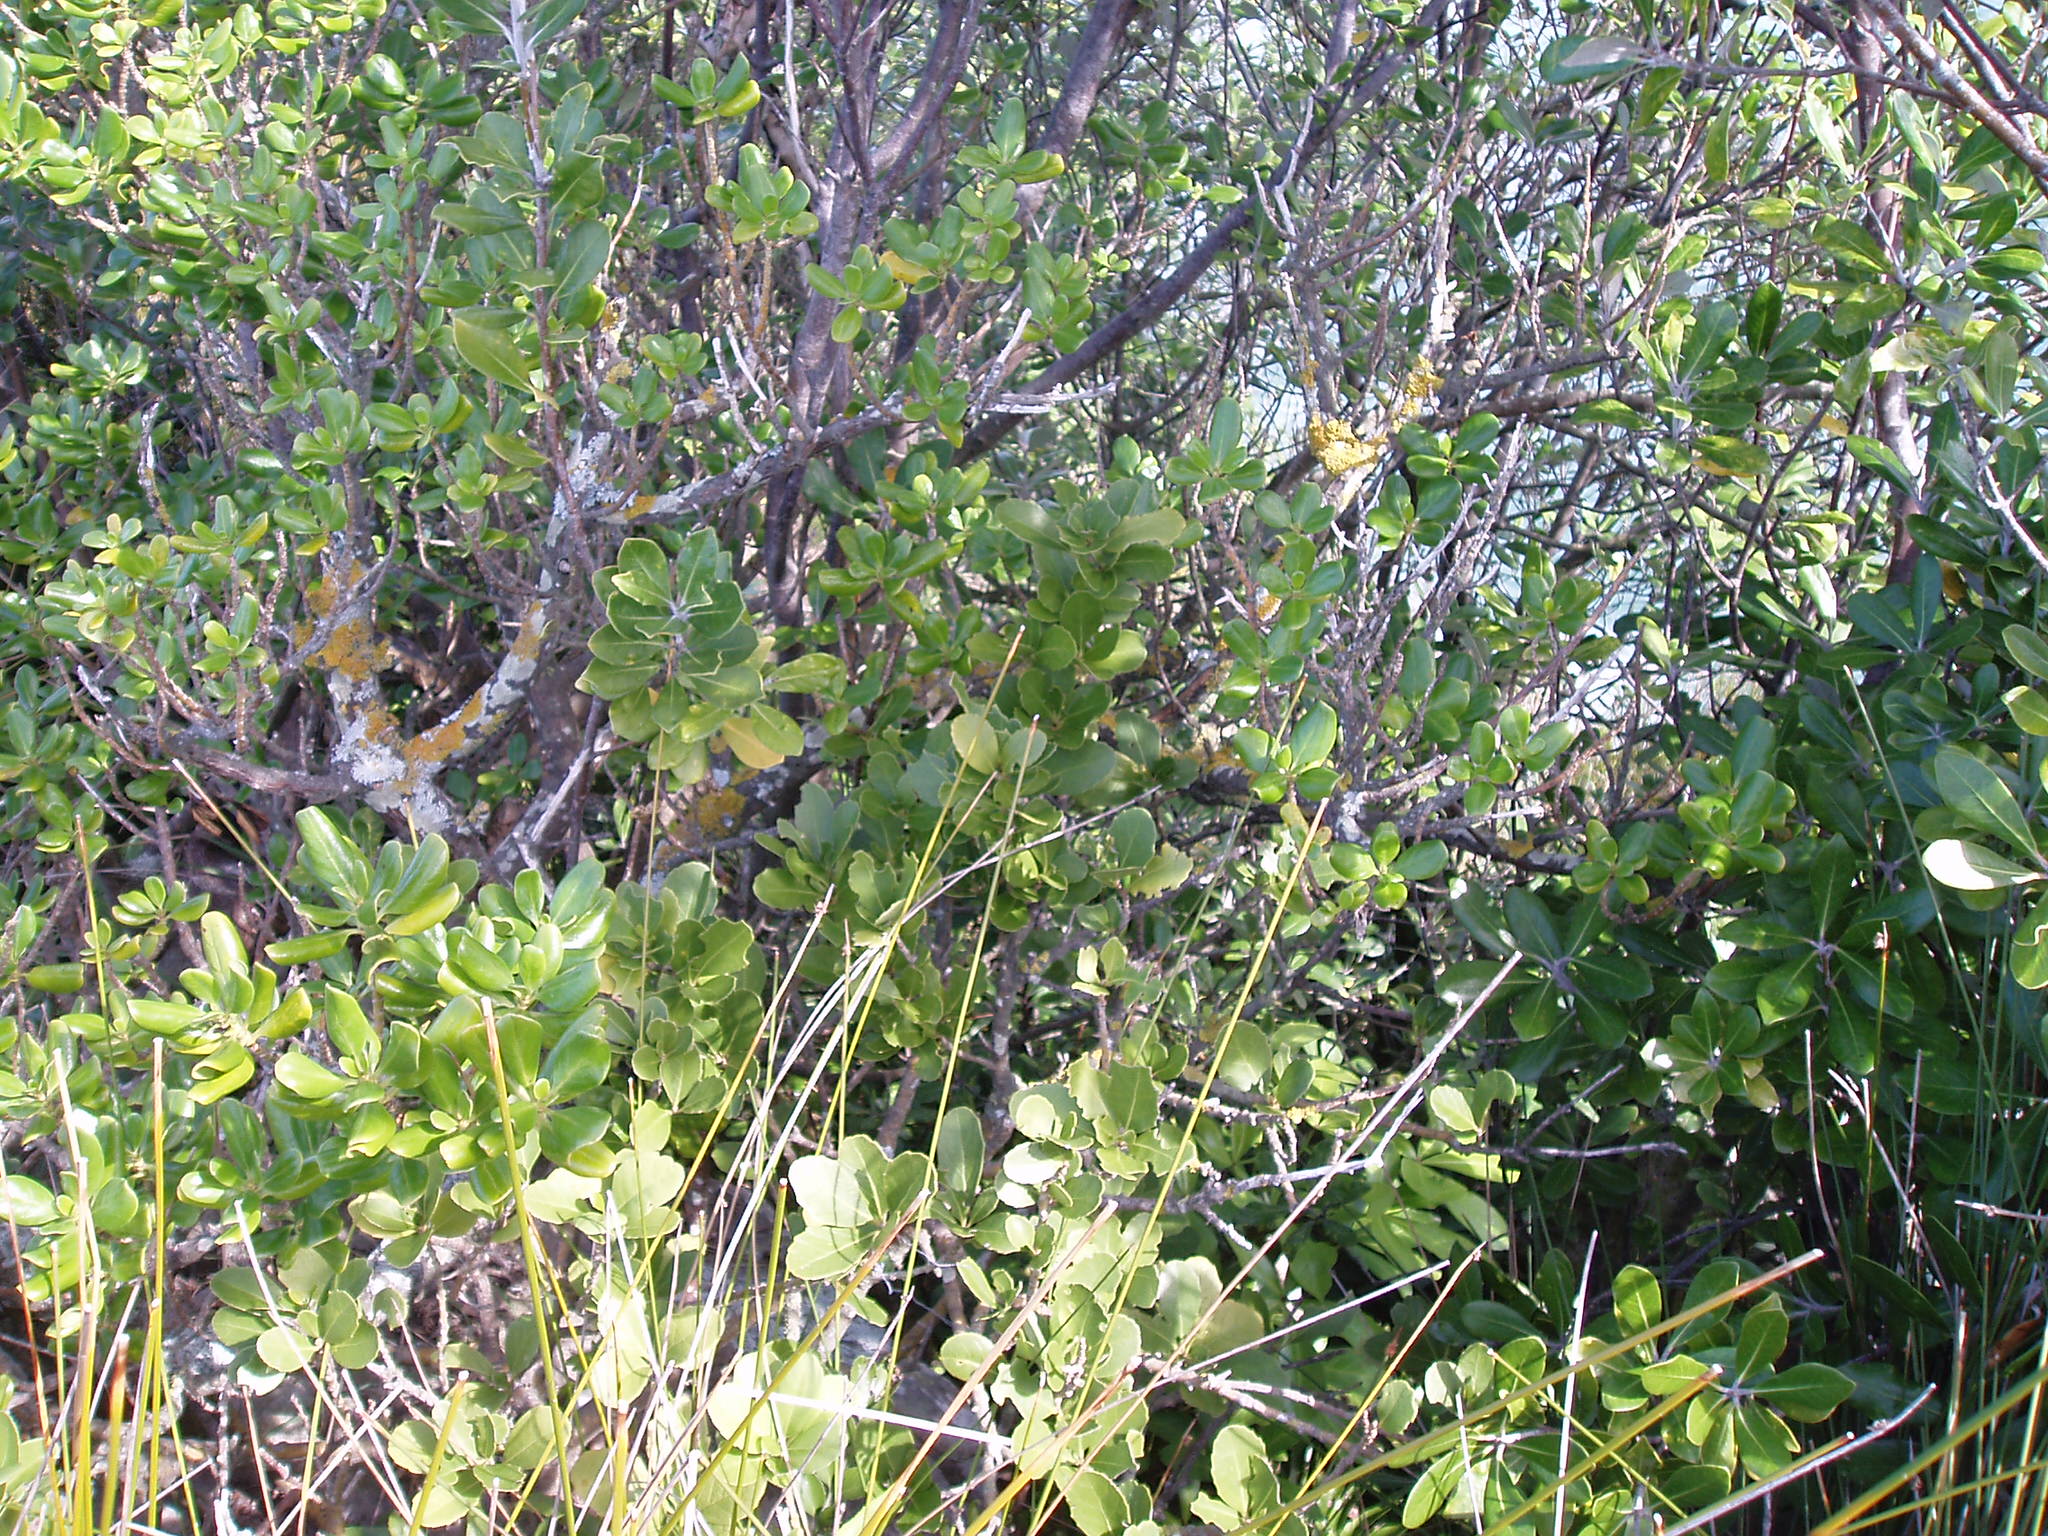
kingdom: Plantae
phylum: Tracheophyta
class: Magnoliopsida
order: Malpighiales
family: Violaceae
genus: Melicytus
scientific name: Melicytus novae-zelandiae
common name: Coastal mahoe
